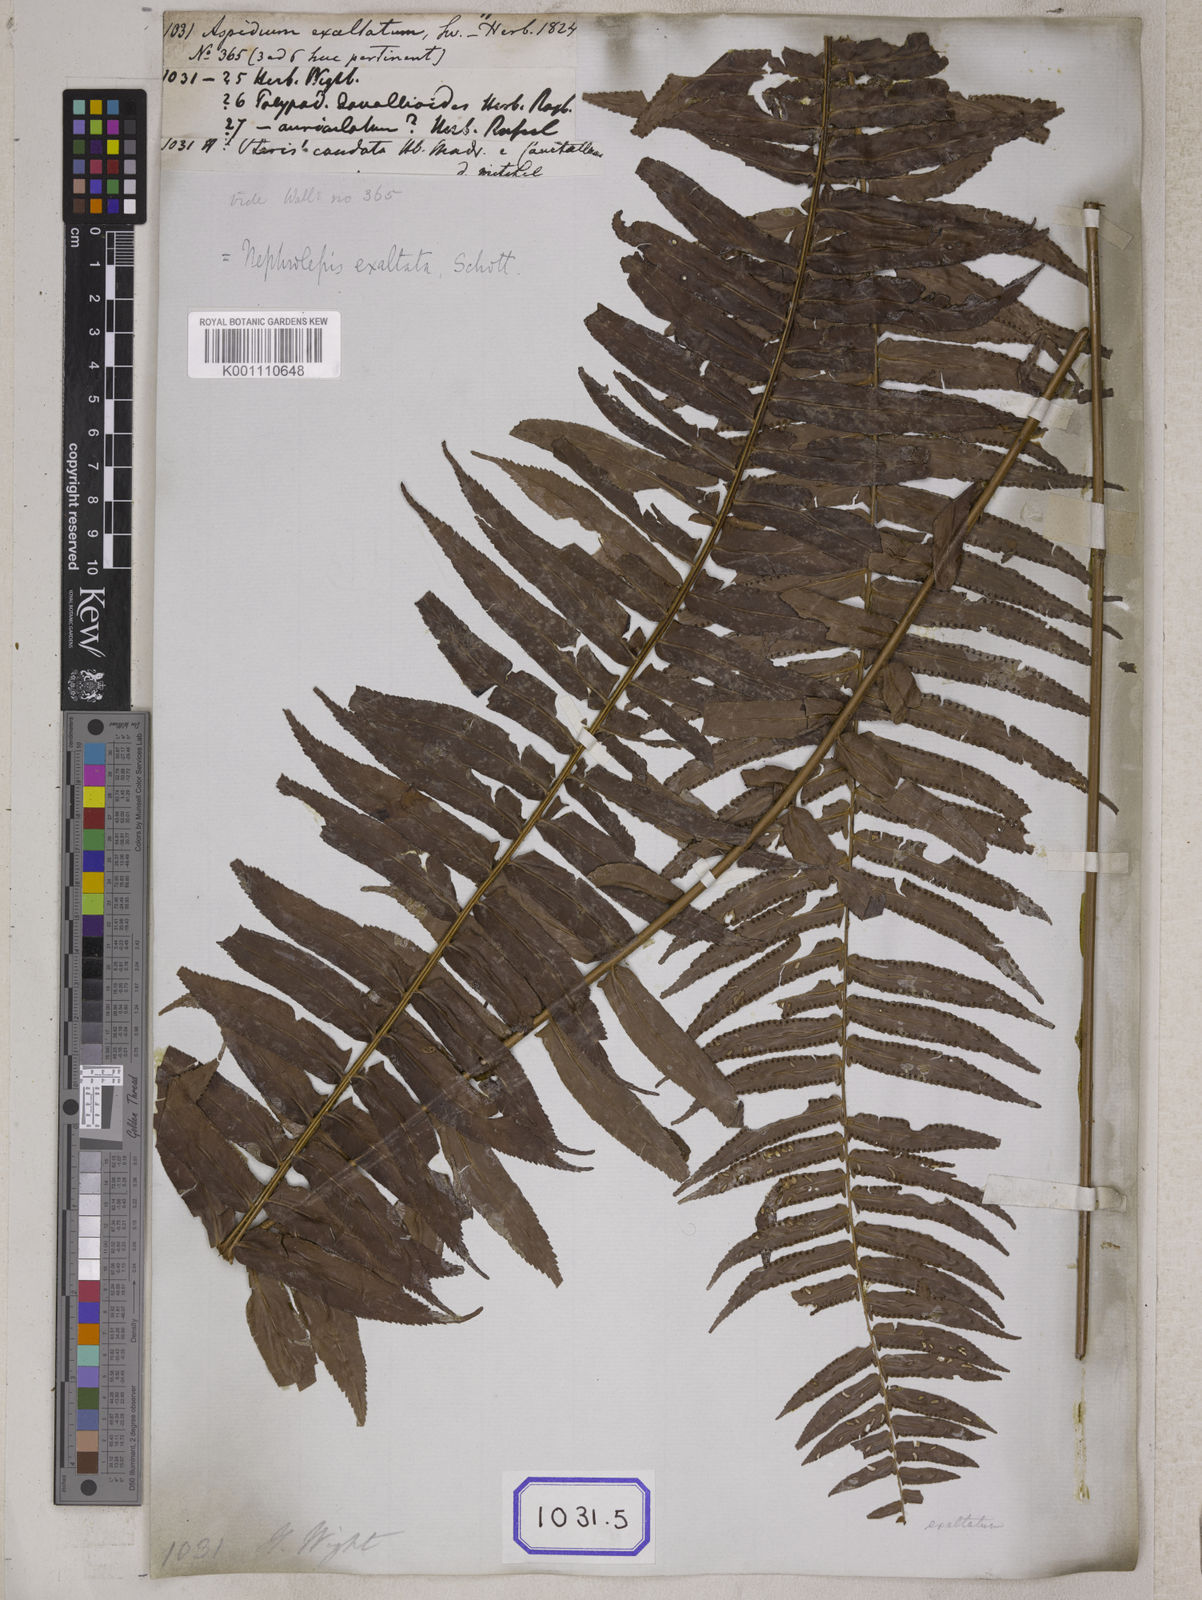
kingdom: Plantae
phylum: Tracheophyta
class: Polypodiopsida
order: Polypodiales
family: Nephrolepidaceae
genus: Nephrolepis
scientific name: Nephrolepis exaltata
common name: Sword fern
